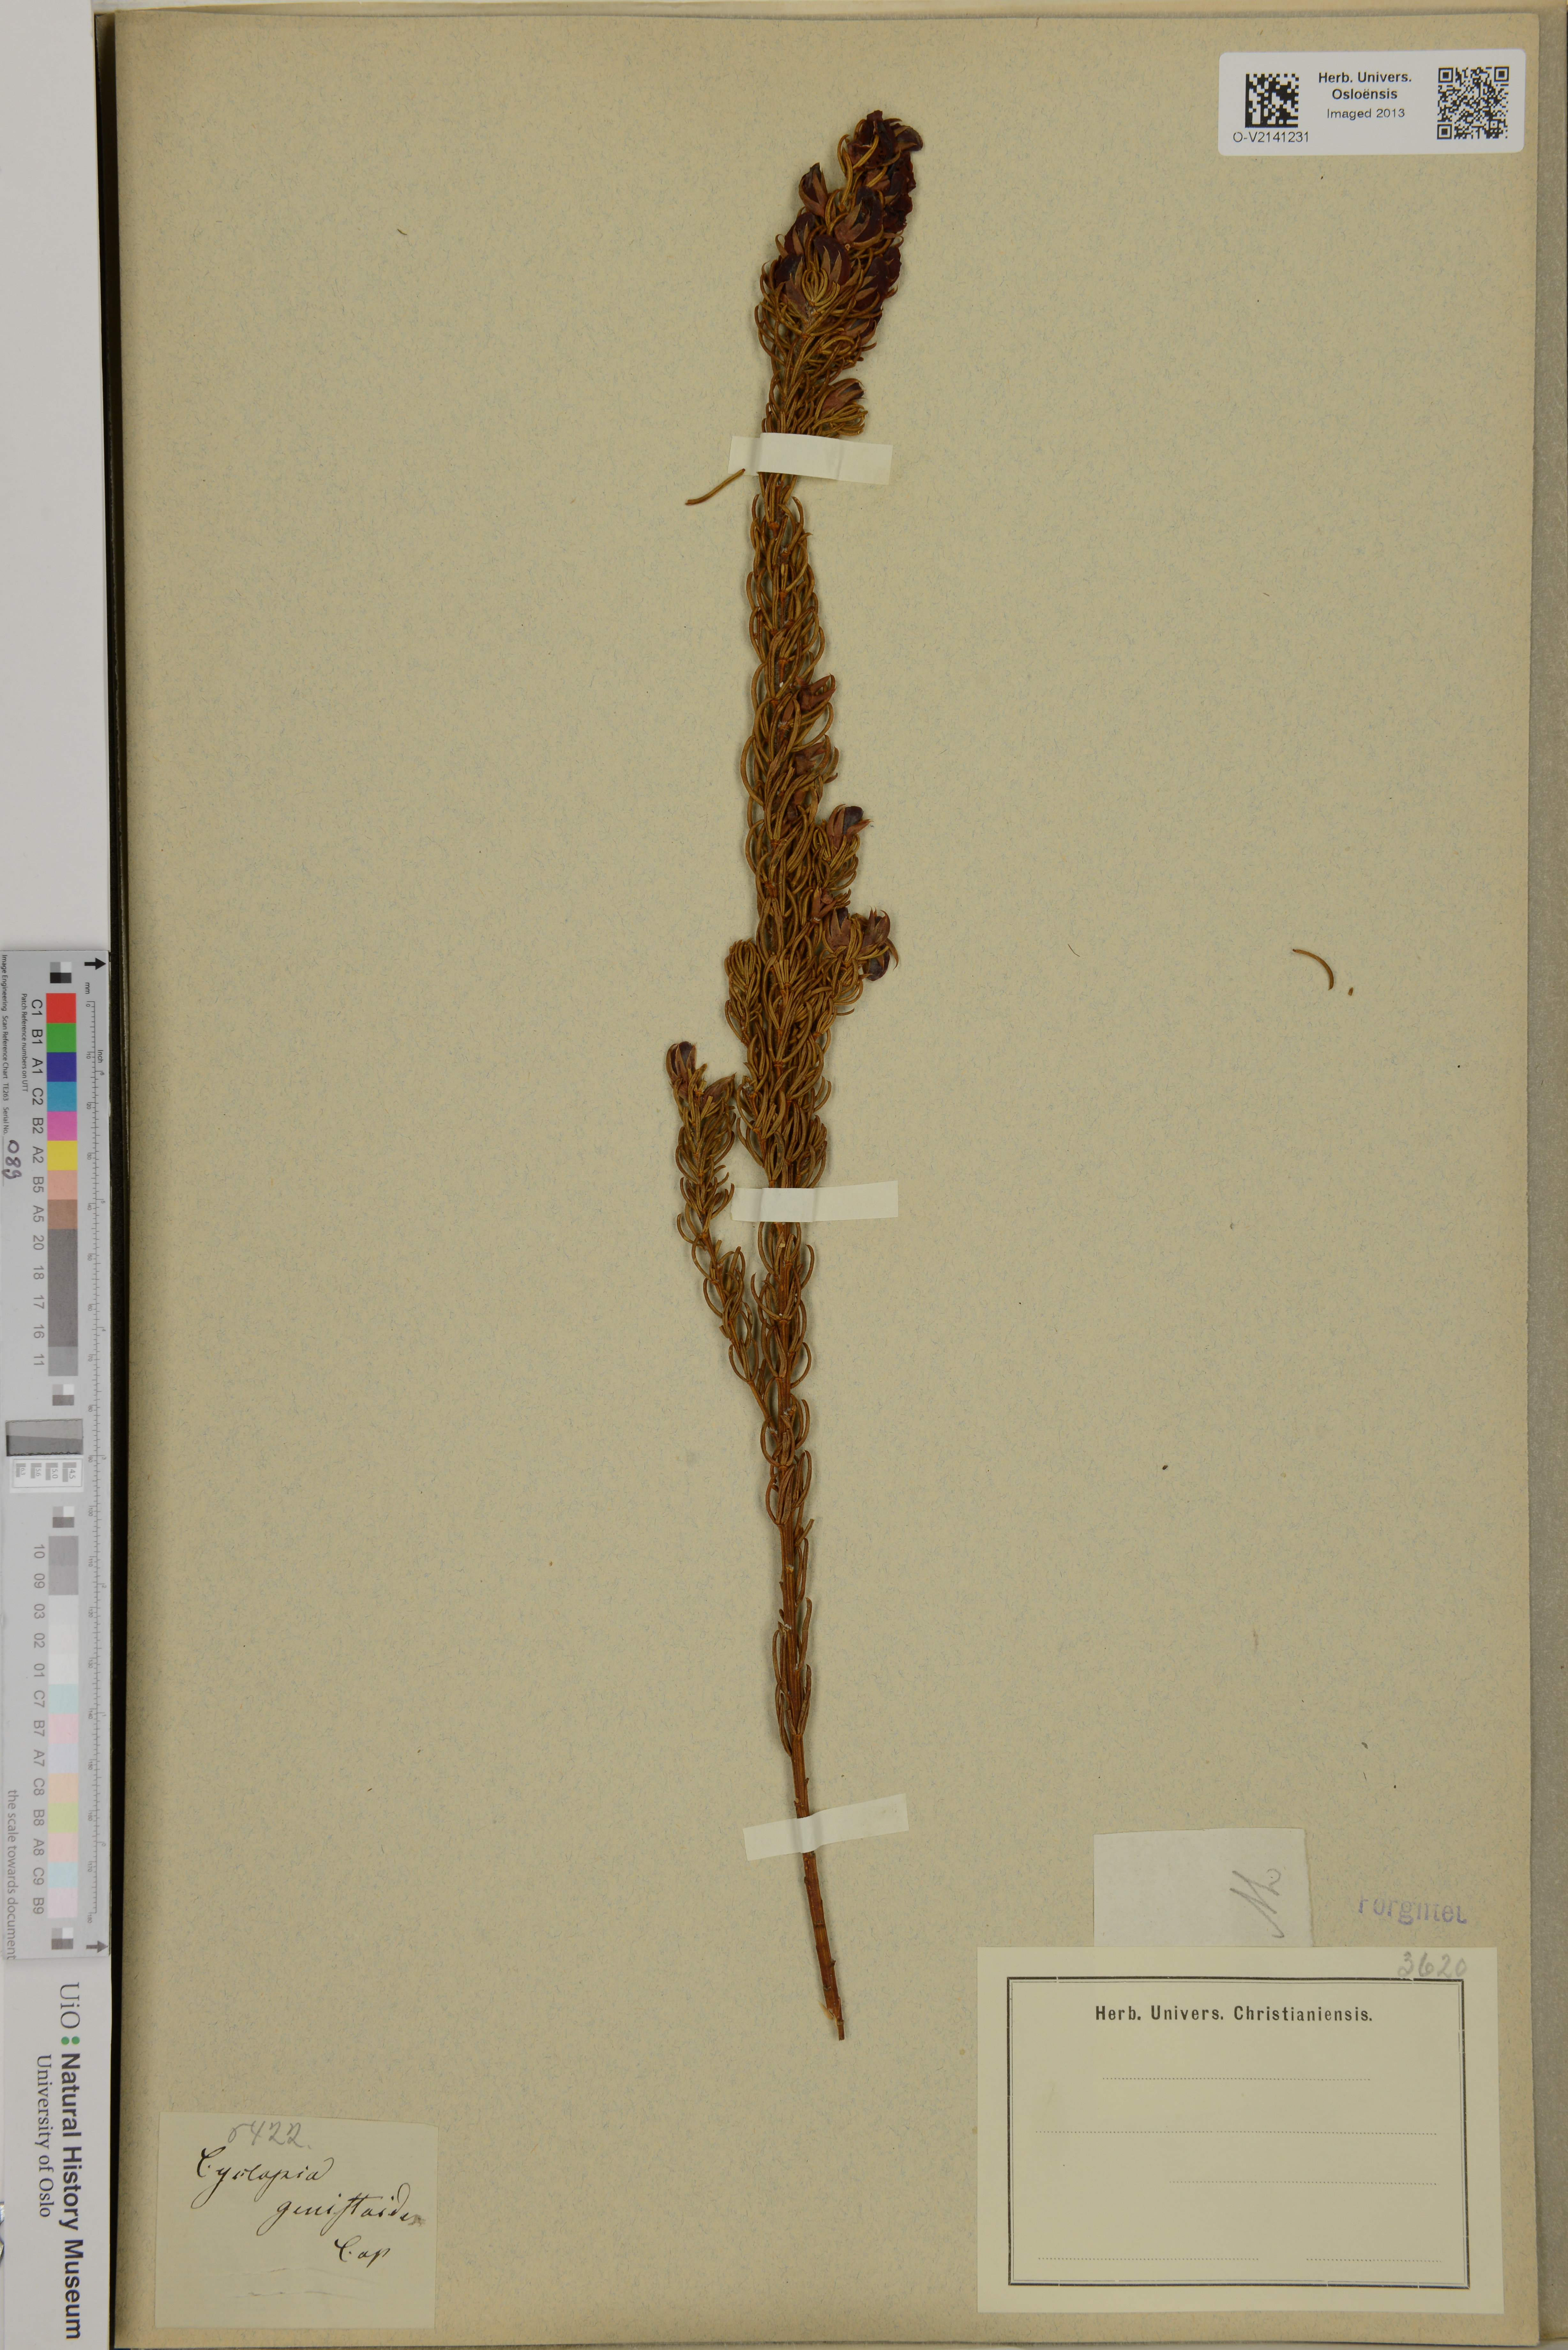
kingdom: Plantae
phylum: Tracheophyta
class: Magnoliopsida
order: Fabales
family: Fabaceae
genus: Cyclopia
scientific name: Cyclopia genistoides
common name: Honeybush tea
